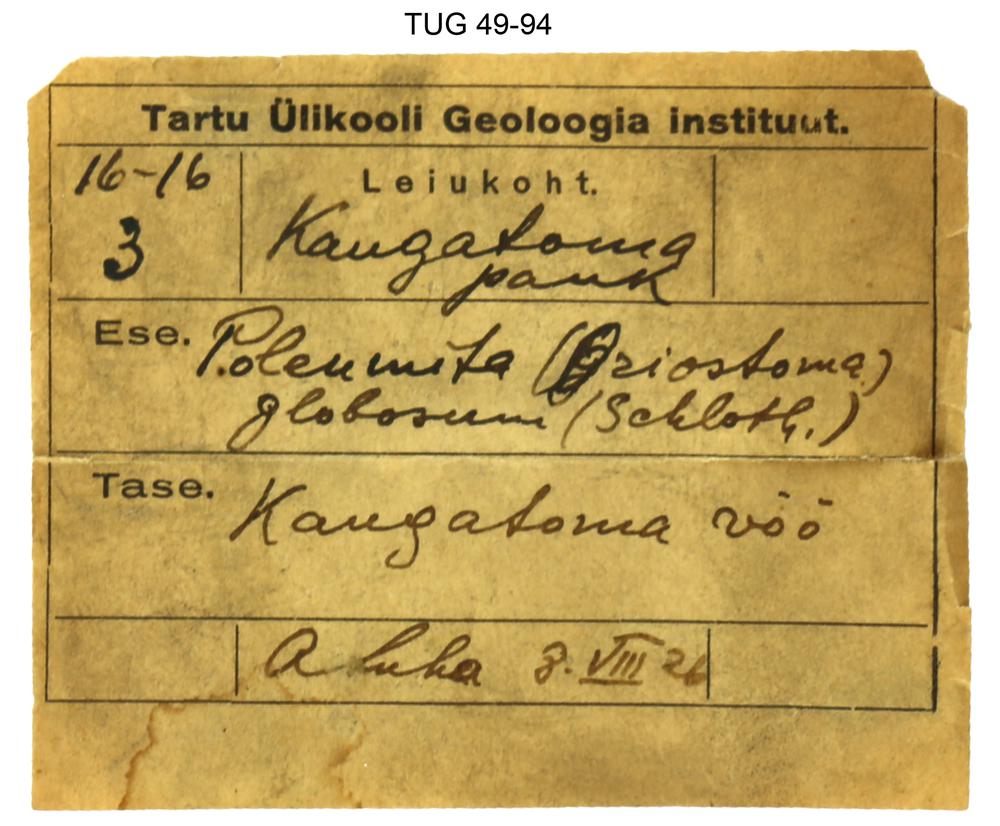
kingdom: Animalia
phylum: Mollusca
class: Gastropoda
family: Euomphalidae
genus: Poleumita
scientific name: Poleumita Euomphalus discors
